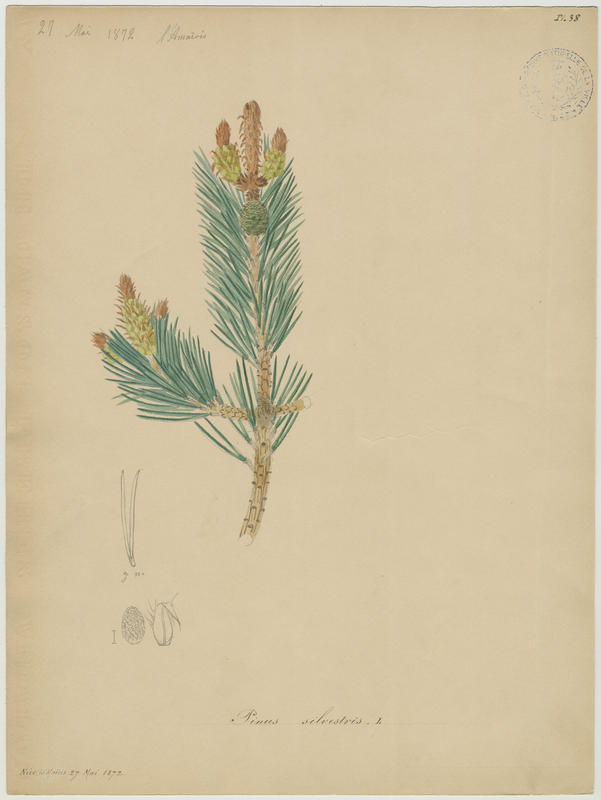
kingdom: Plantae
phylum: Tracheophyta
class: Pinopsida
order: Pinales
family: Pinaceae
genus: Pinus
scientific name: Pinus sylvestris
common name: Scots pine
